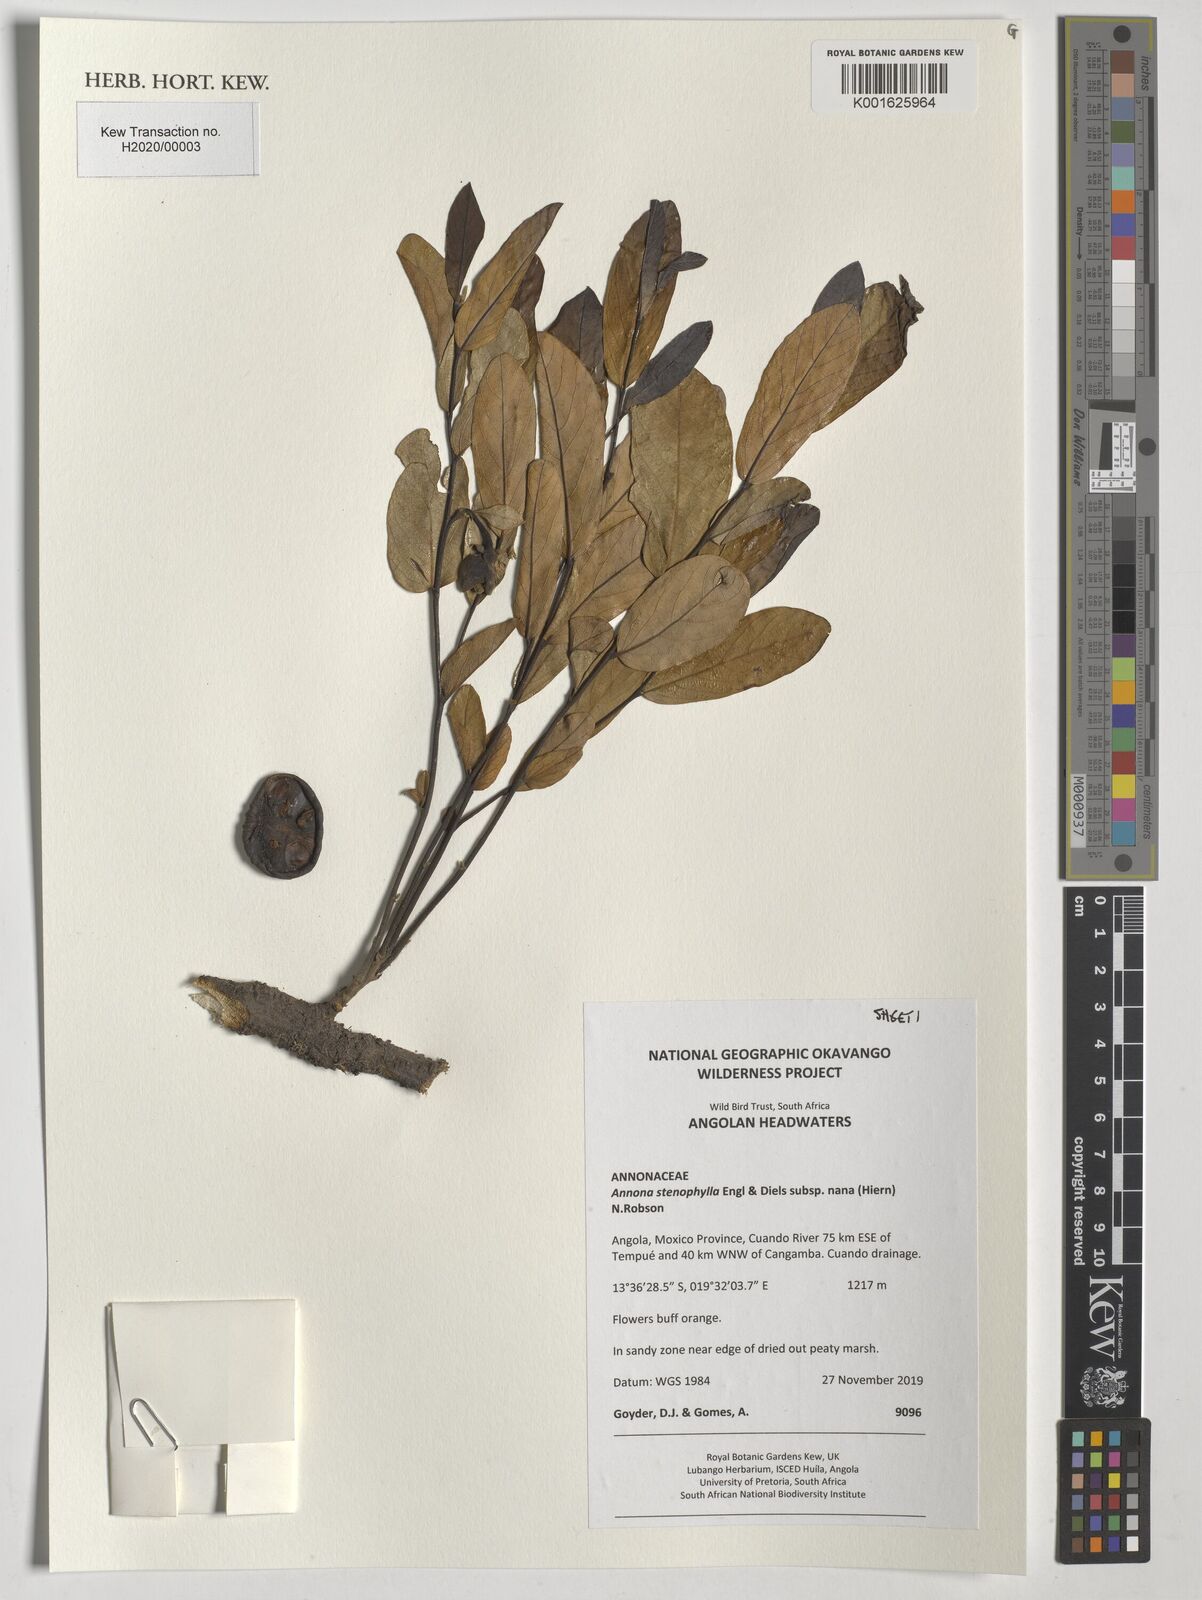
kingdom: Plantae
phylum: Tracheophyta
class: Magnoliopsida
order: Magnoliales
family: Annonaceae
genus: Annona
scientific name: Annona stenophylla
